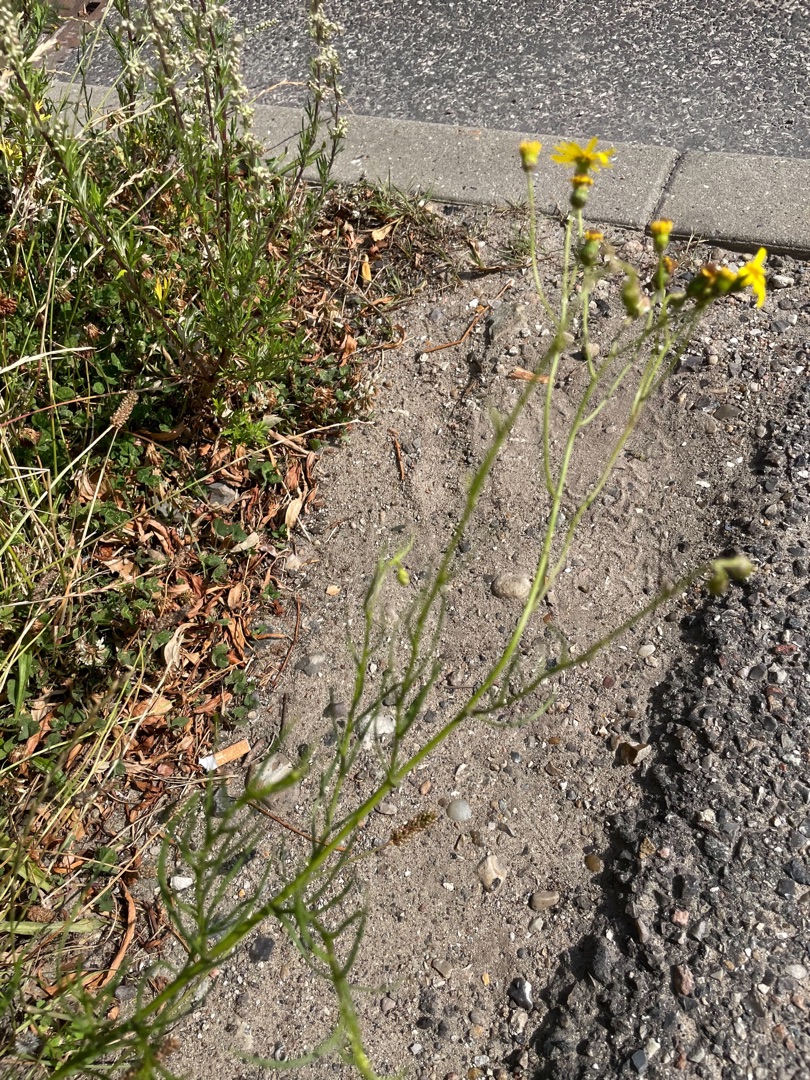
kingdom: Plantae
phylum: Tracheophyta
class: Magnoliopsida
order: Asterales
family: Asteraceae
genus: Senecio
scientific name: Senecio inaequidens
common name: Smalbladet brandbæger
